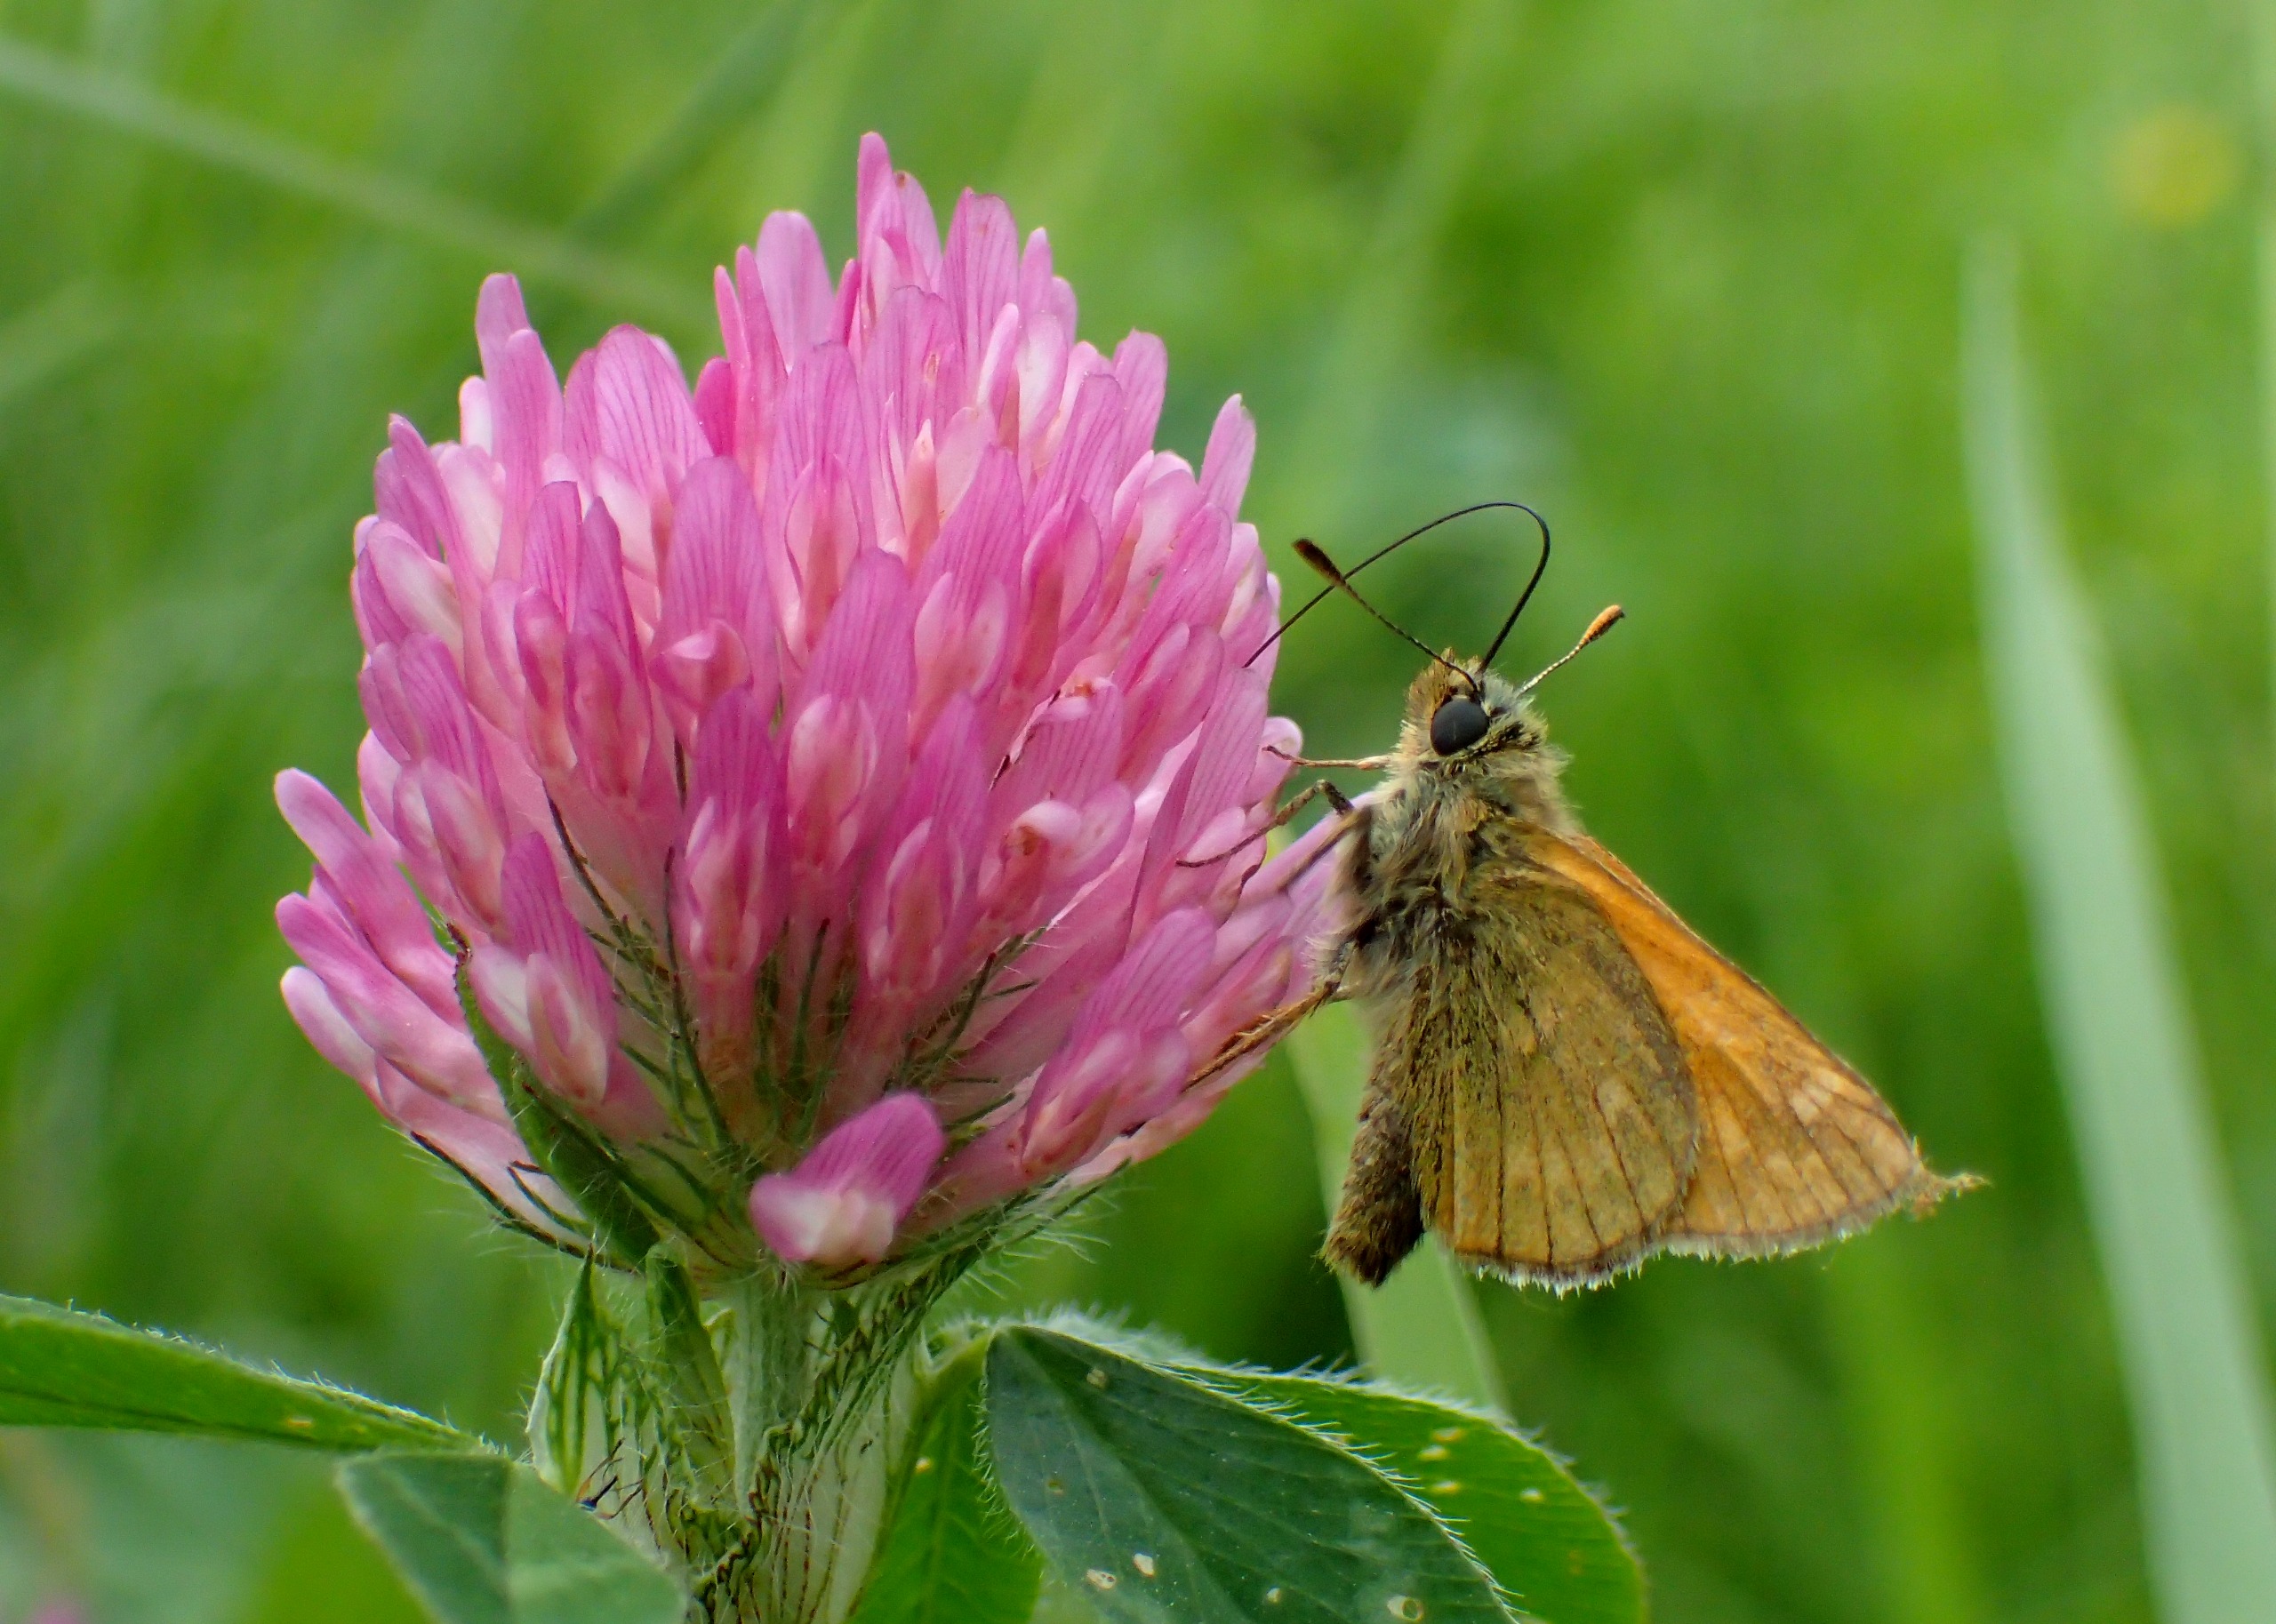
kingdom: Animalia
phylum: Arthropoda
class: Insecta
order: Lepidoptera
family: Hesperiidae
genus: Ochlodes
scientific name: Ochlodes venata
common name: Stor bredpande
